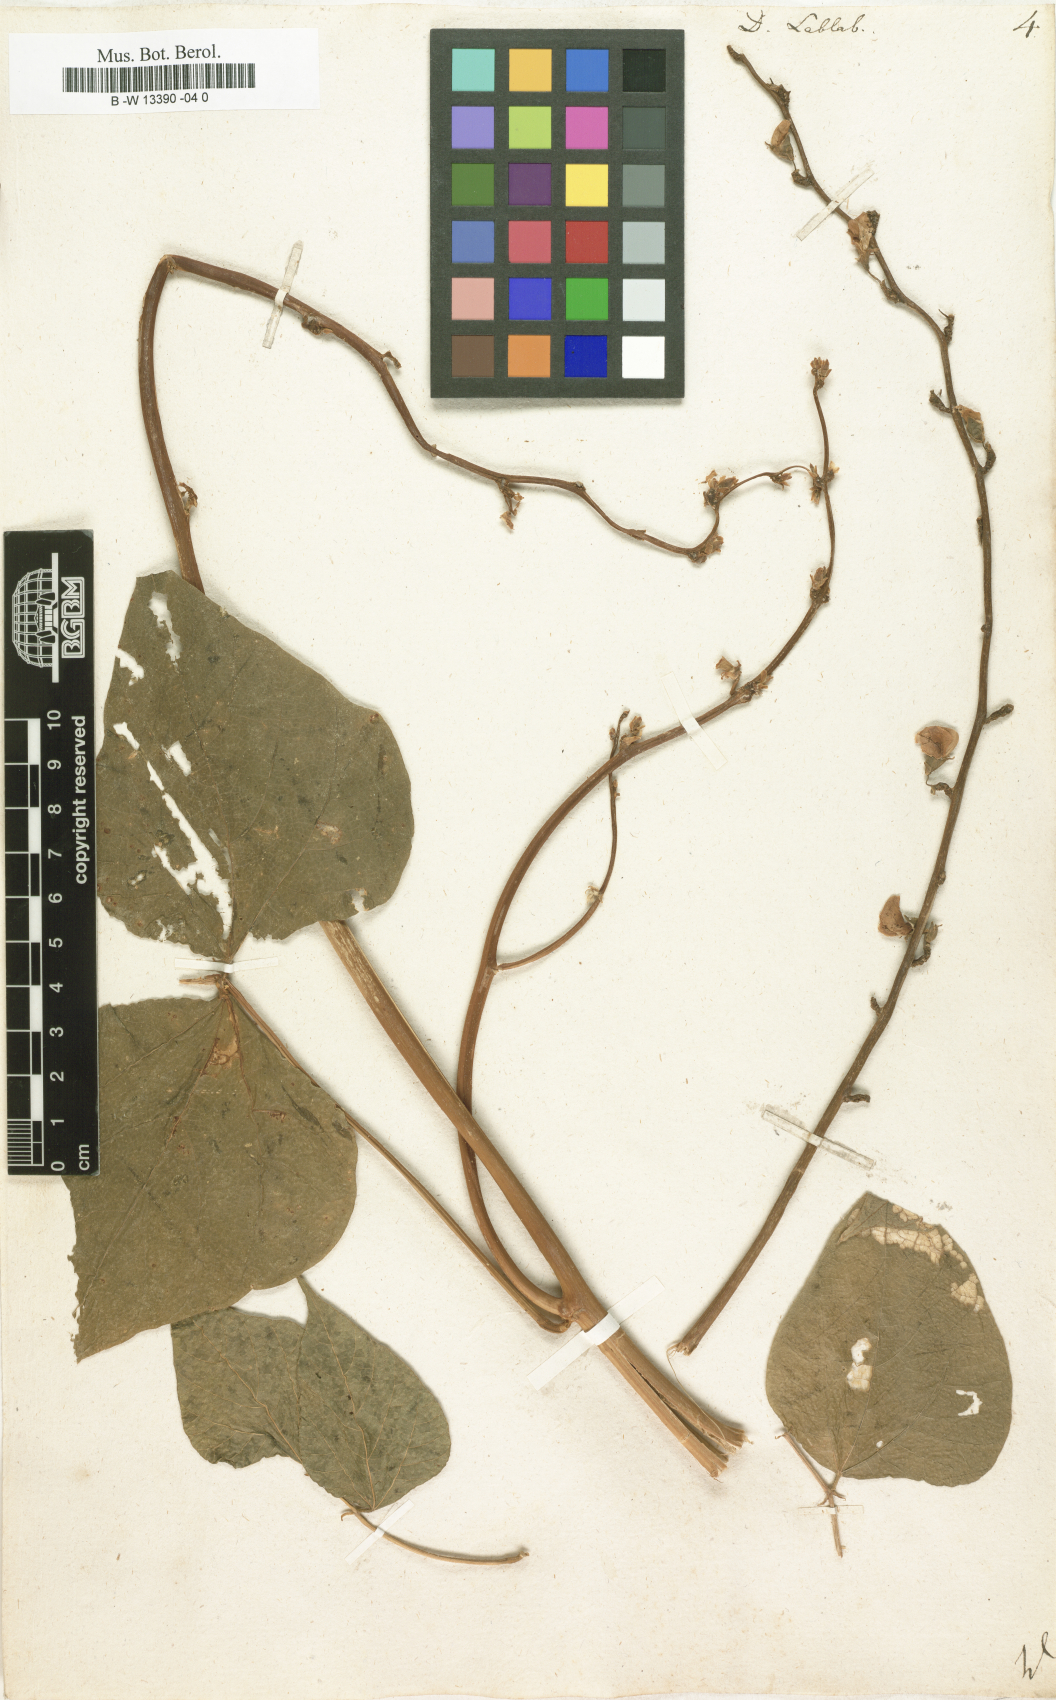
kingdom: Plantae
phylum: Tracheophyta
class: Magnoliopsida
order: Fabales
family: Fabaceae
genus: Lablab
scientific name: Lablab purpureus
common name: Lablab-bean
